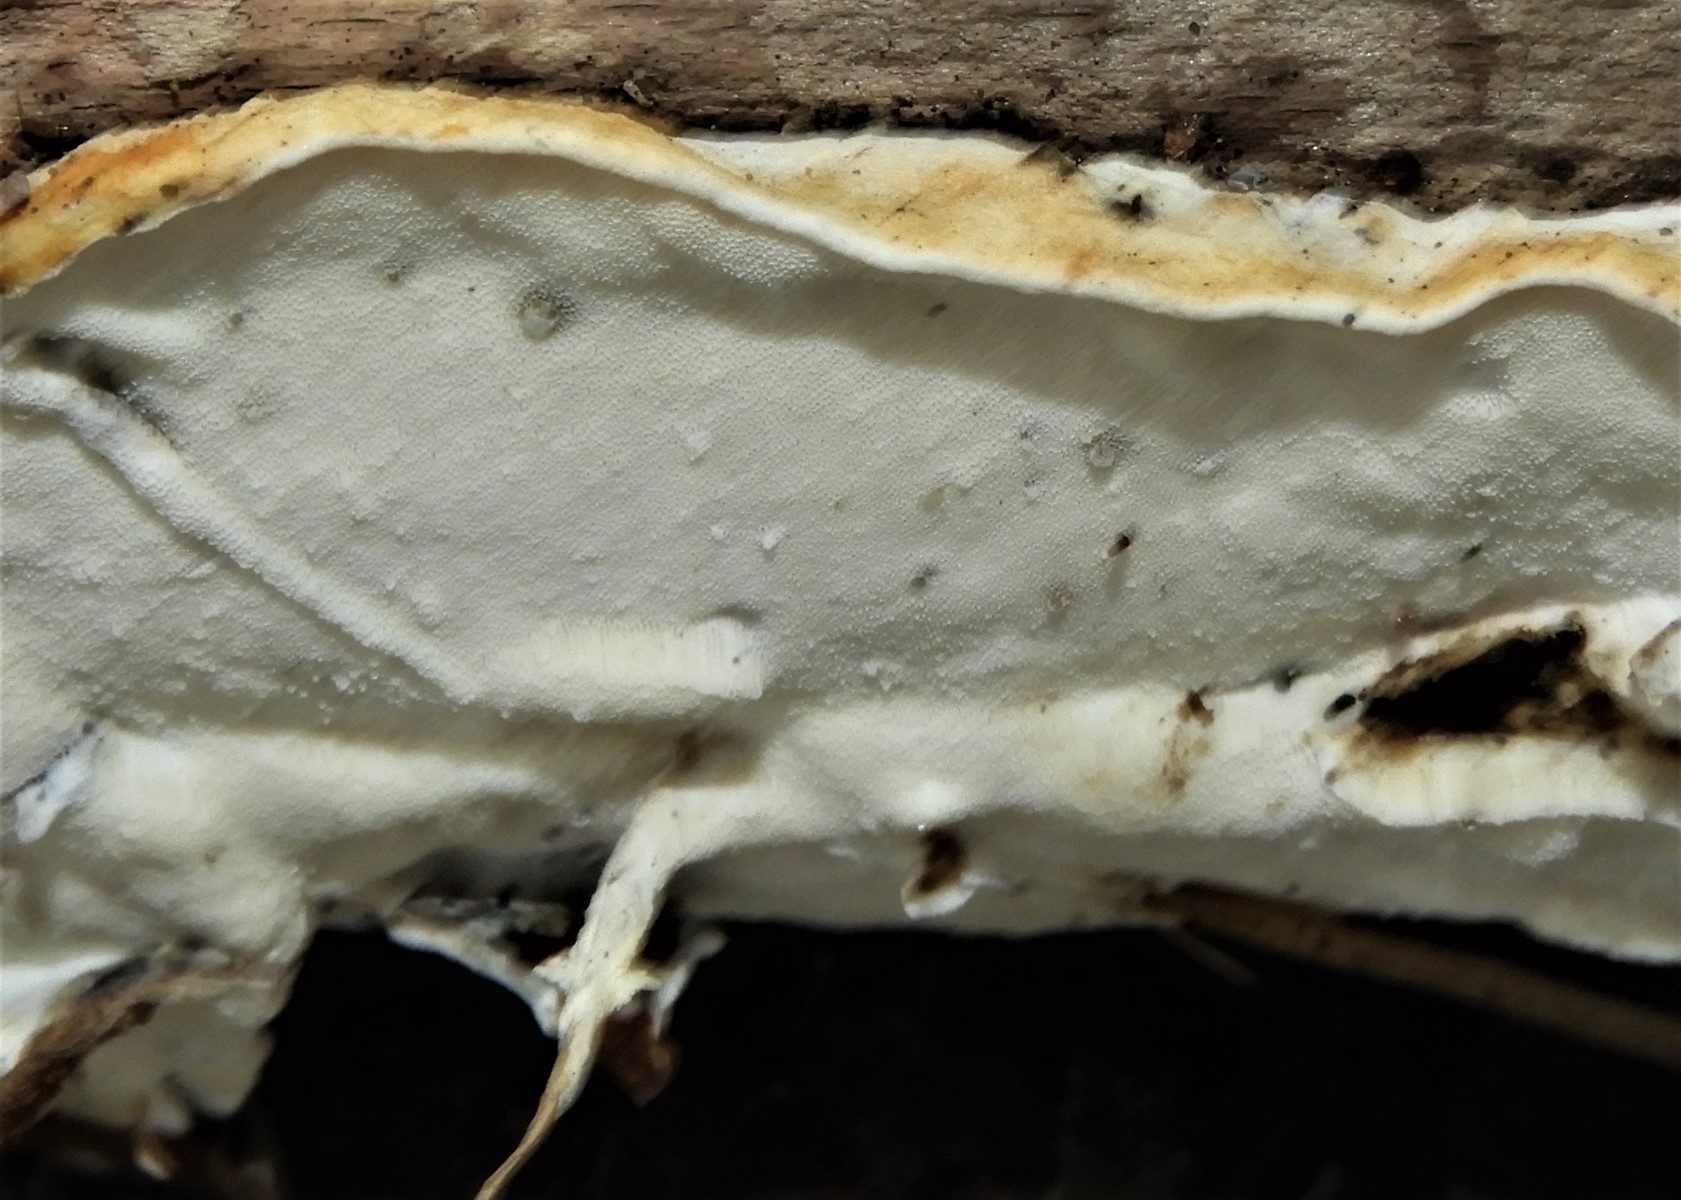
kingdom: Fungi
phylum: Basidiomycota
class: Agaricomycetes
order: Polyporales
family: Incrustoporiaceae
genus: Skeletocutis
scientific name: Skeletocutis nemoralis
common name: stor krystalporesvamp
